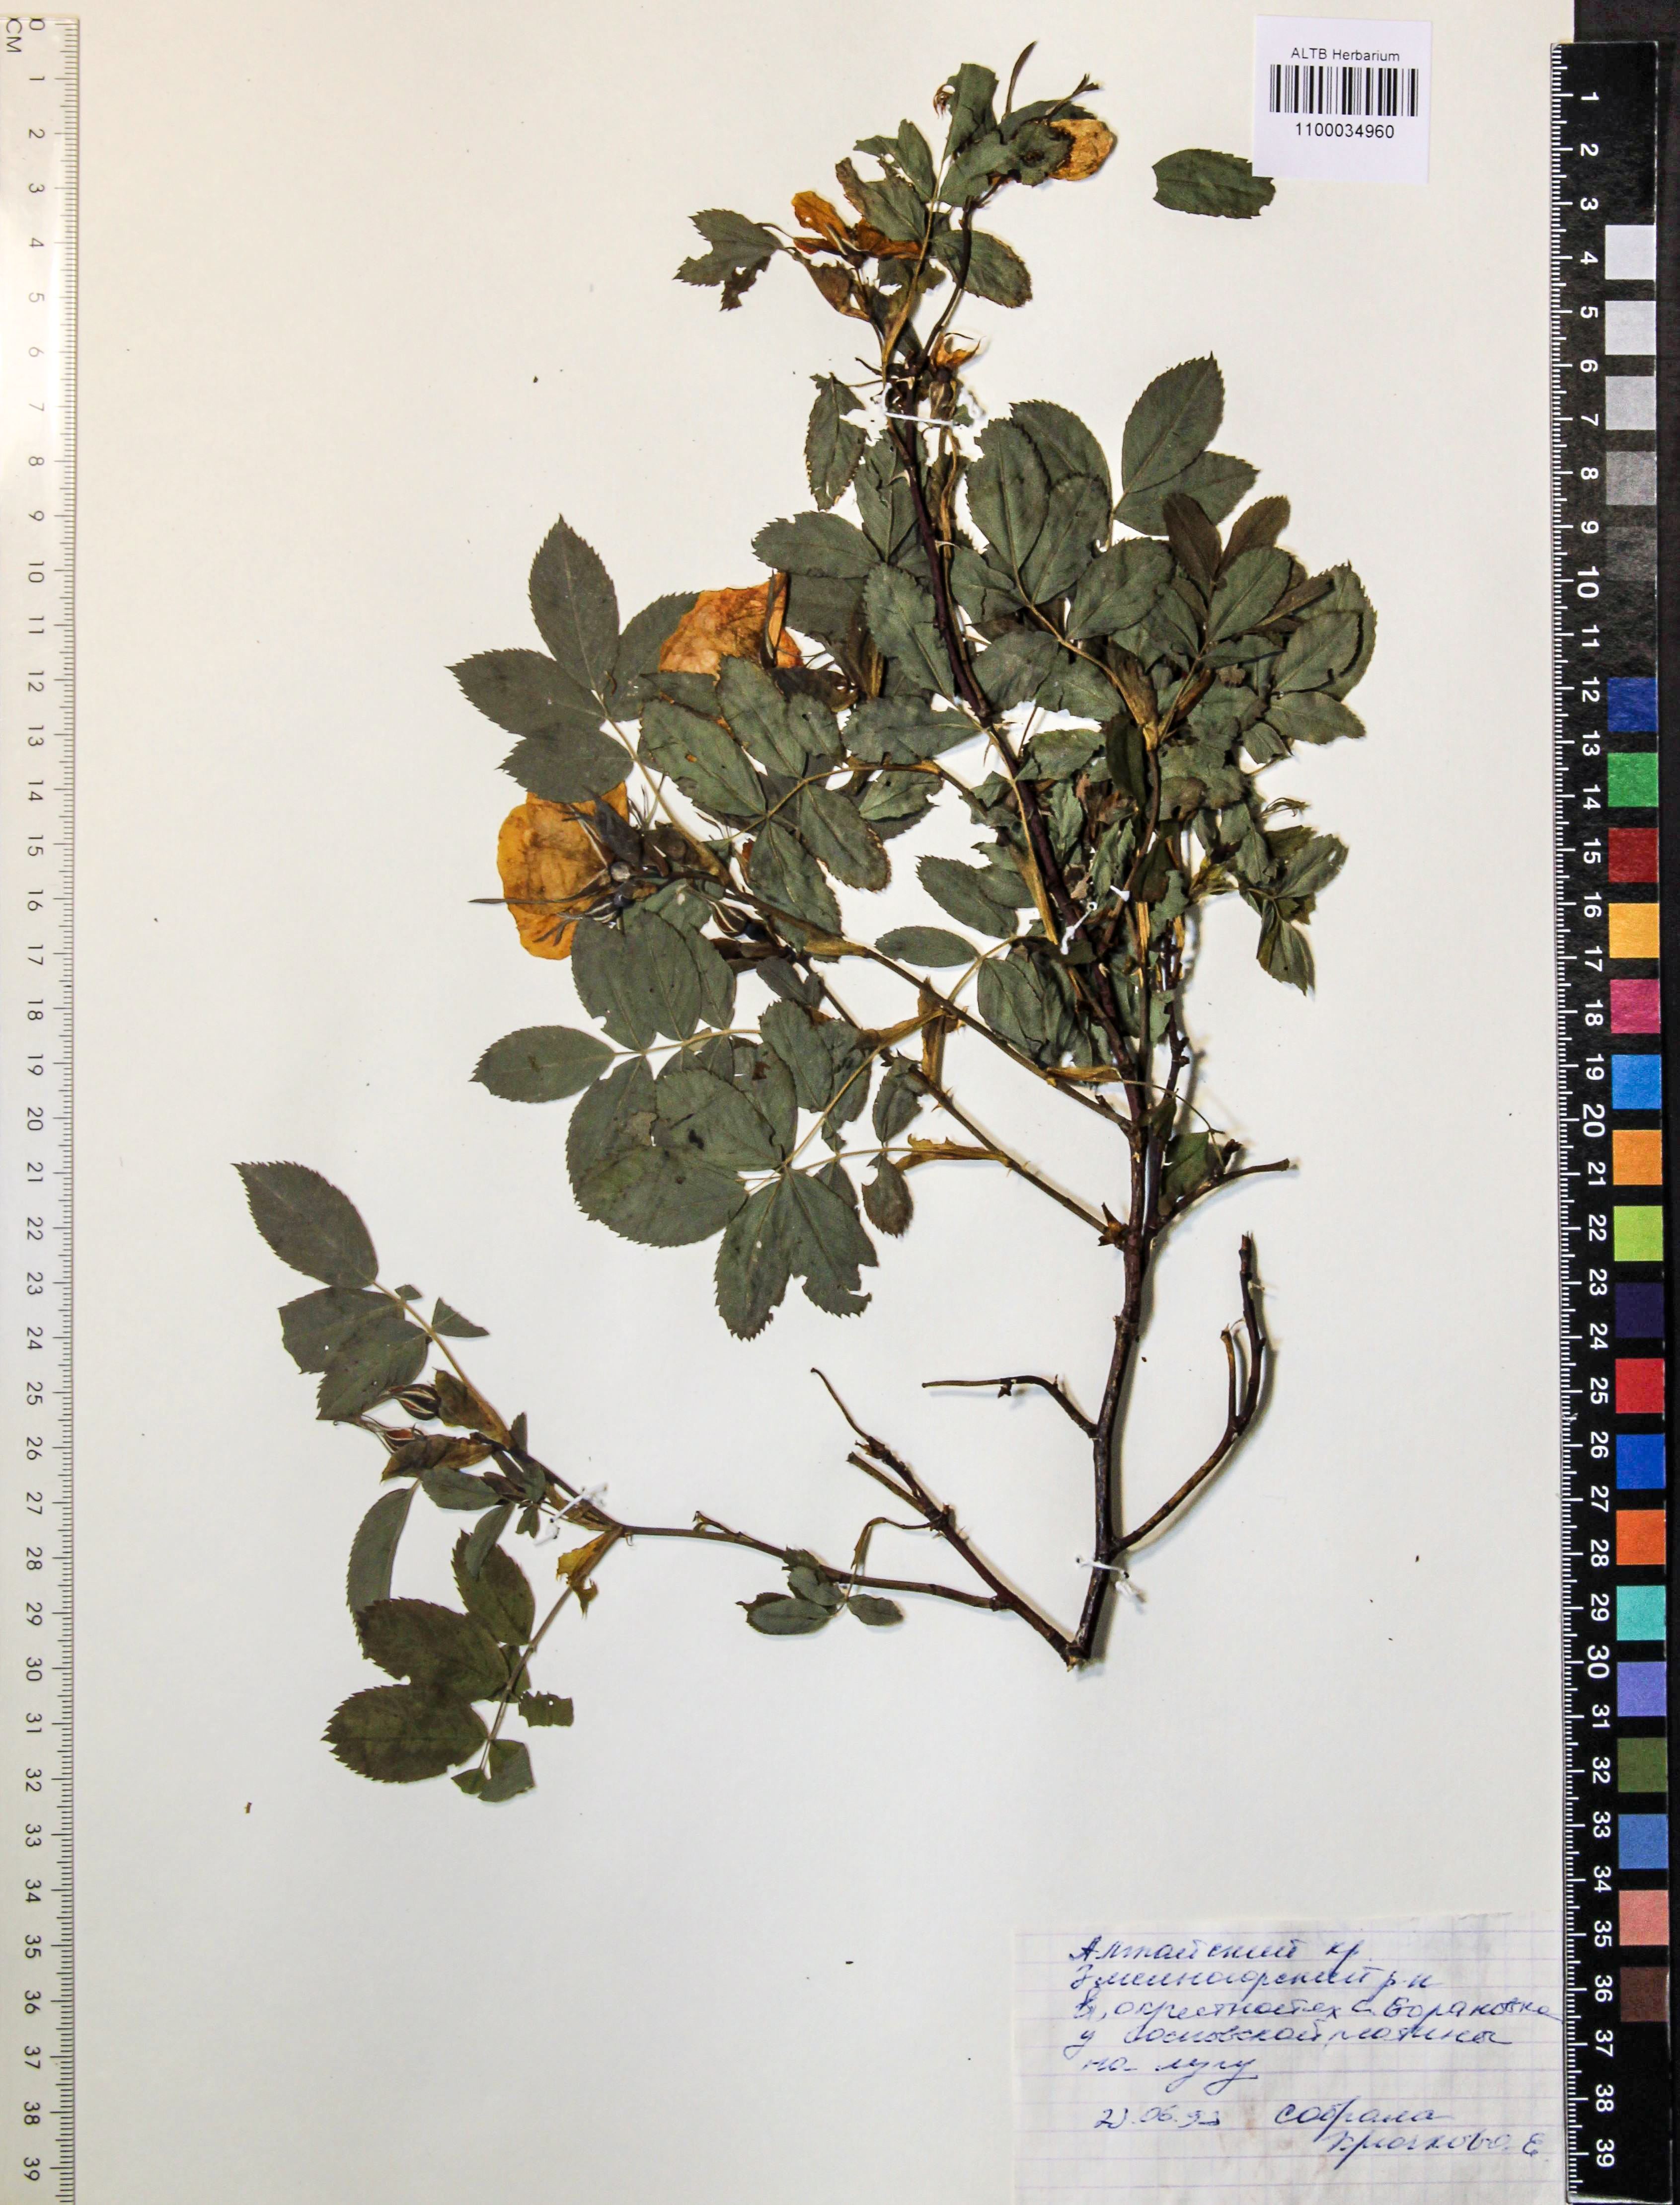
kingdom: Plantae
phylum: Tracheophyta
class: Magnoliopsida
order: Rosales
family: Rosaceae
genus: Rosa
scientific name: Rosa spinosissima
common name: Burnet rose
